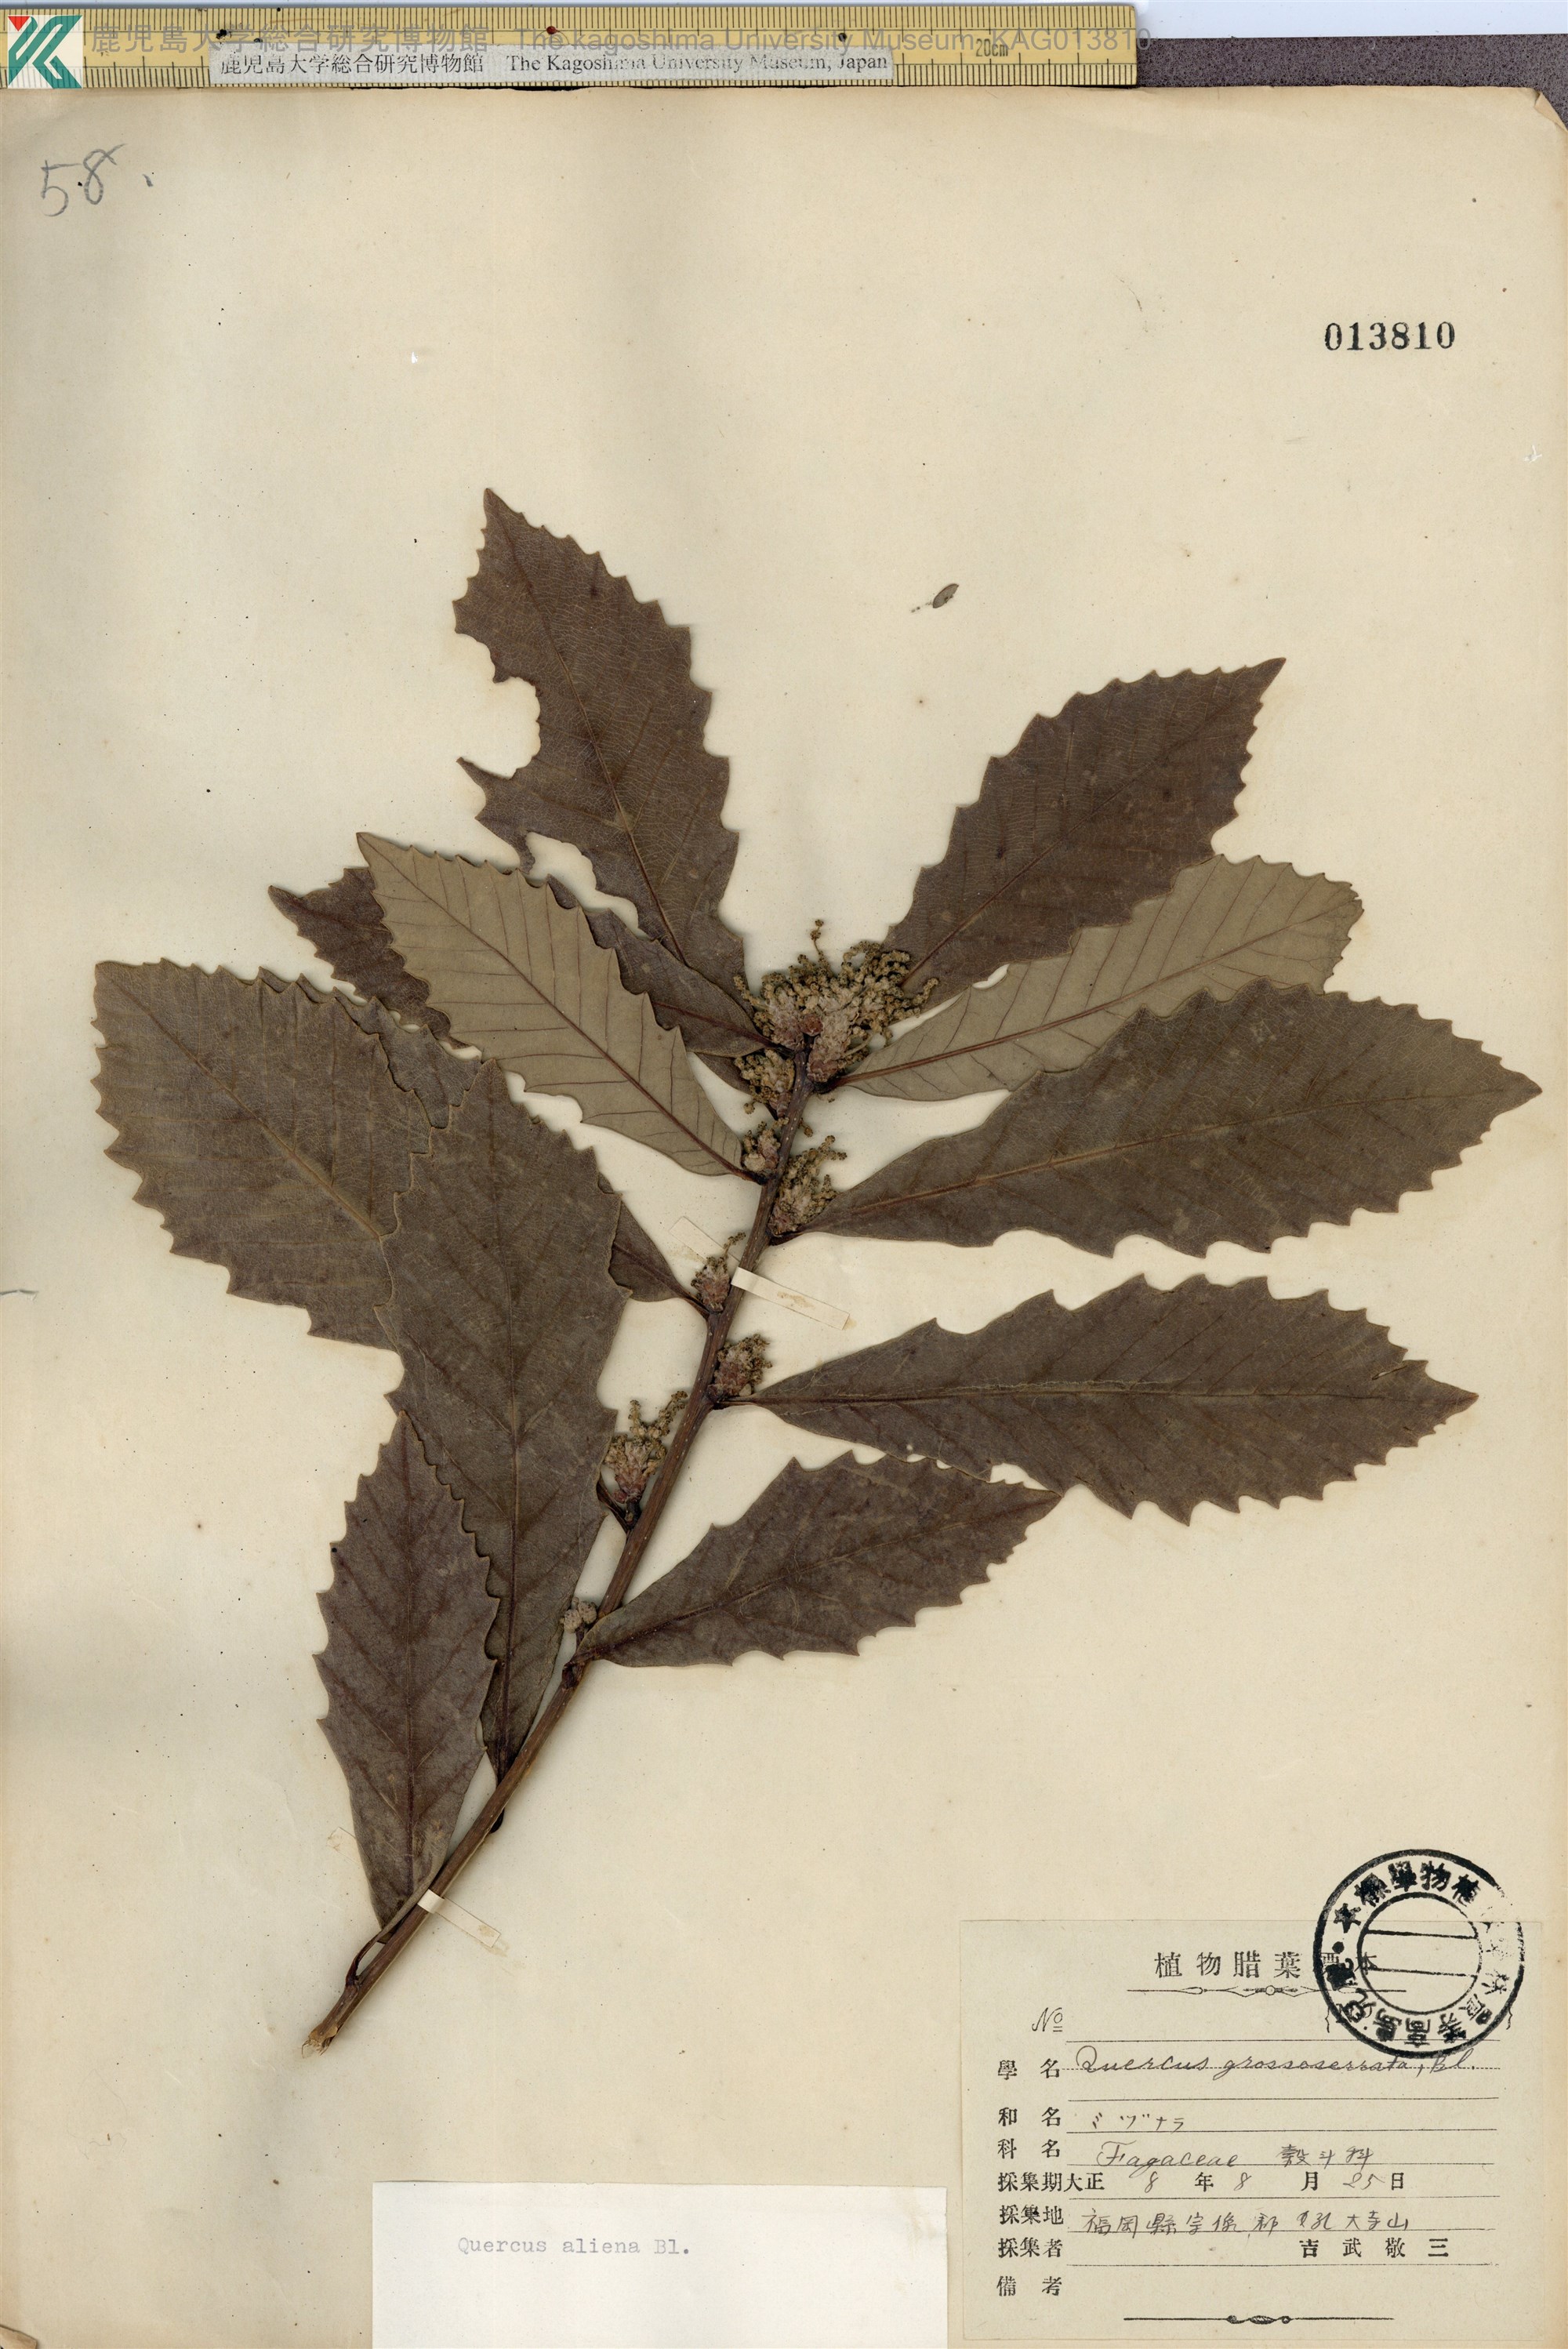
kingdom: Plantae
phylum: Tracheophyta
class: Magnoliopsida
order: Fagales
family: Fagaceae
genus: Quercus
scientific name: Quercus aliena
